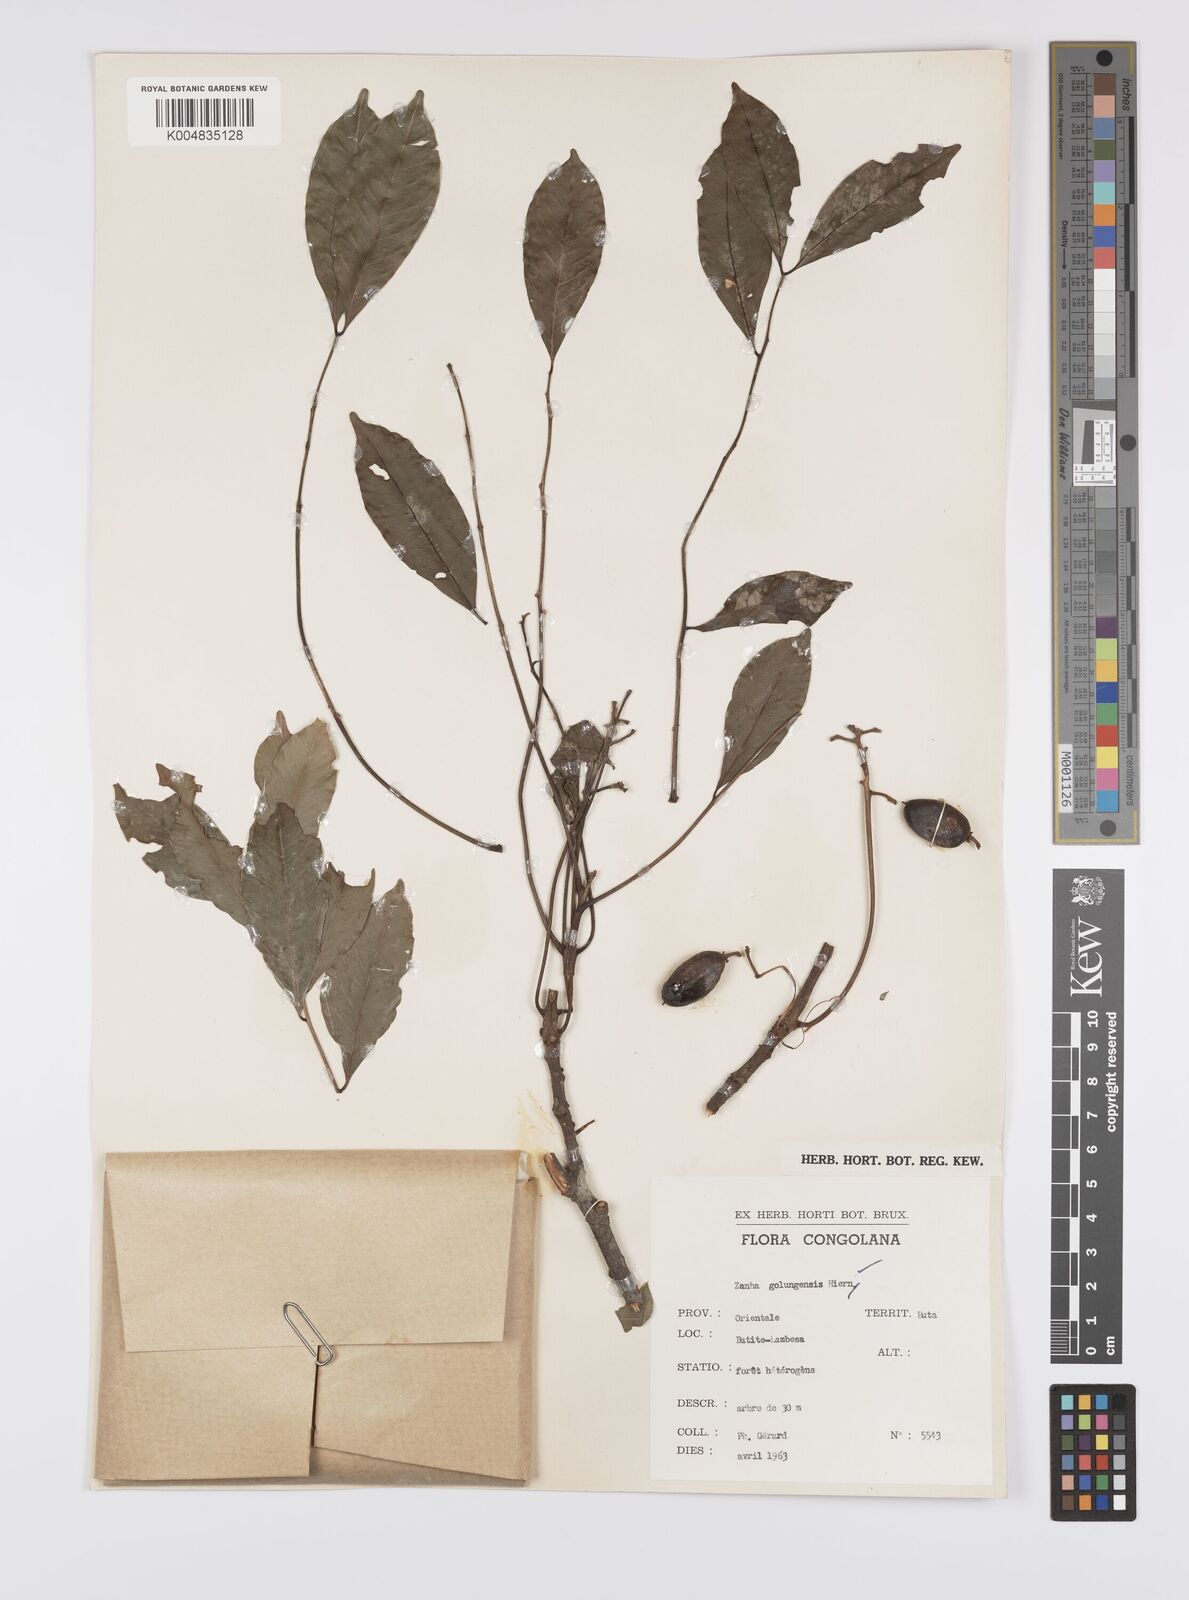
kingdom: Plantae
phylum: Tracheophyta
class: Magnoliopsida
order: Sapindales
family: Sapindaceae
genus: Zanha
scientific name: Zanha golungensis
